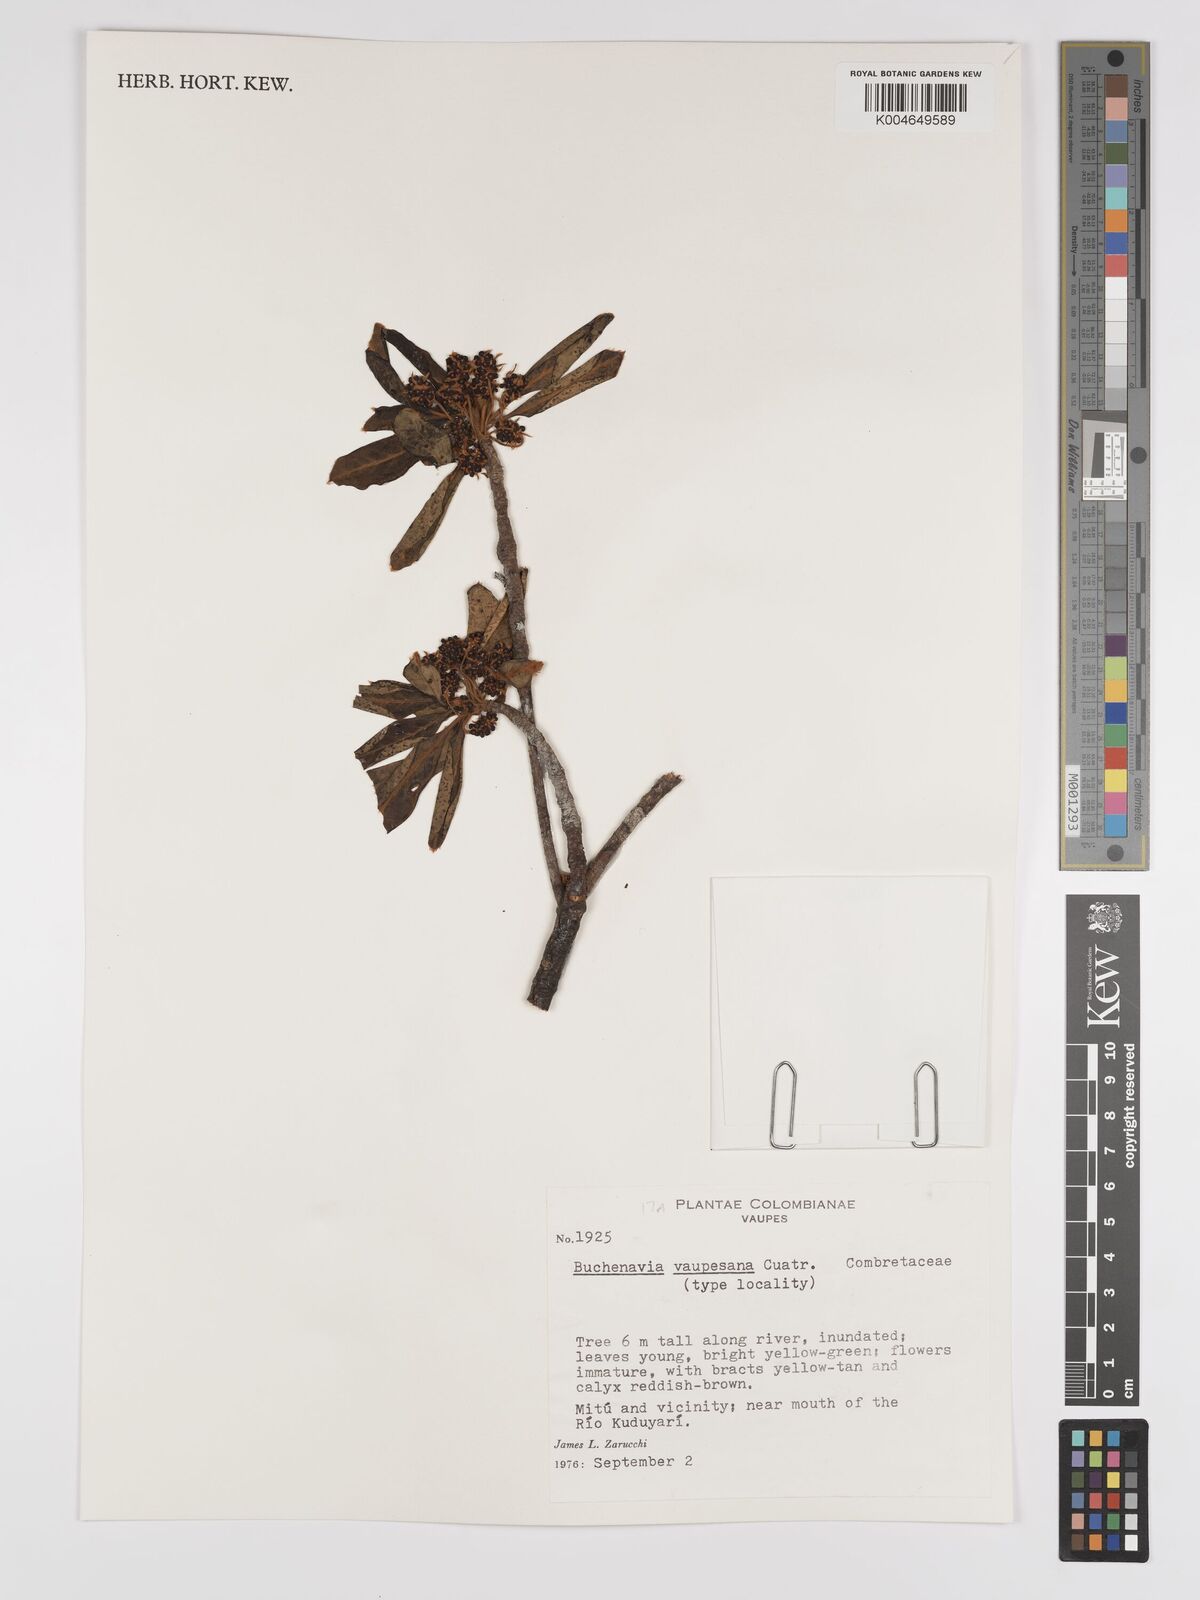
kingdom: Plantae
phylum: Tracheophyta
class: Magnoliopsida
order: Myrtales
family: Combretaceae
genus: Terminalia
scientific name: Terminalia tetraphylla
